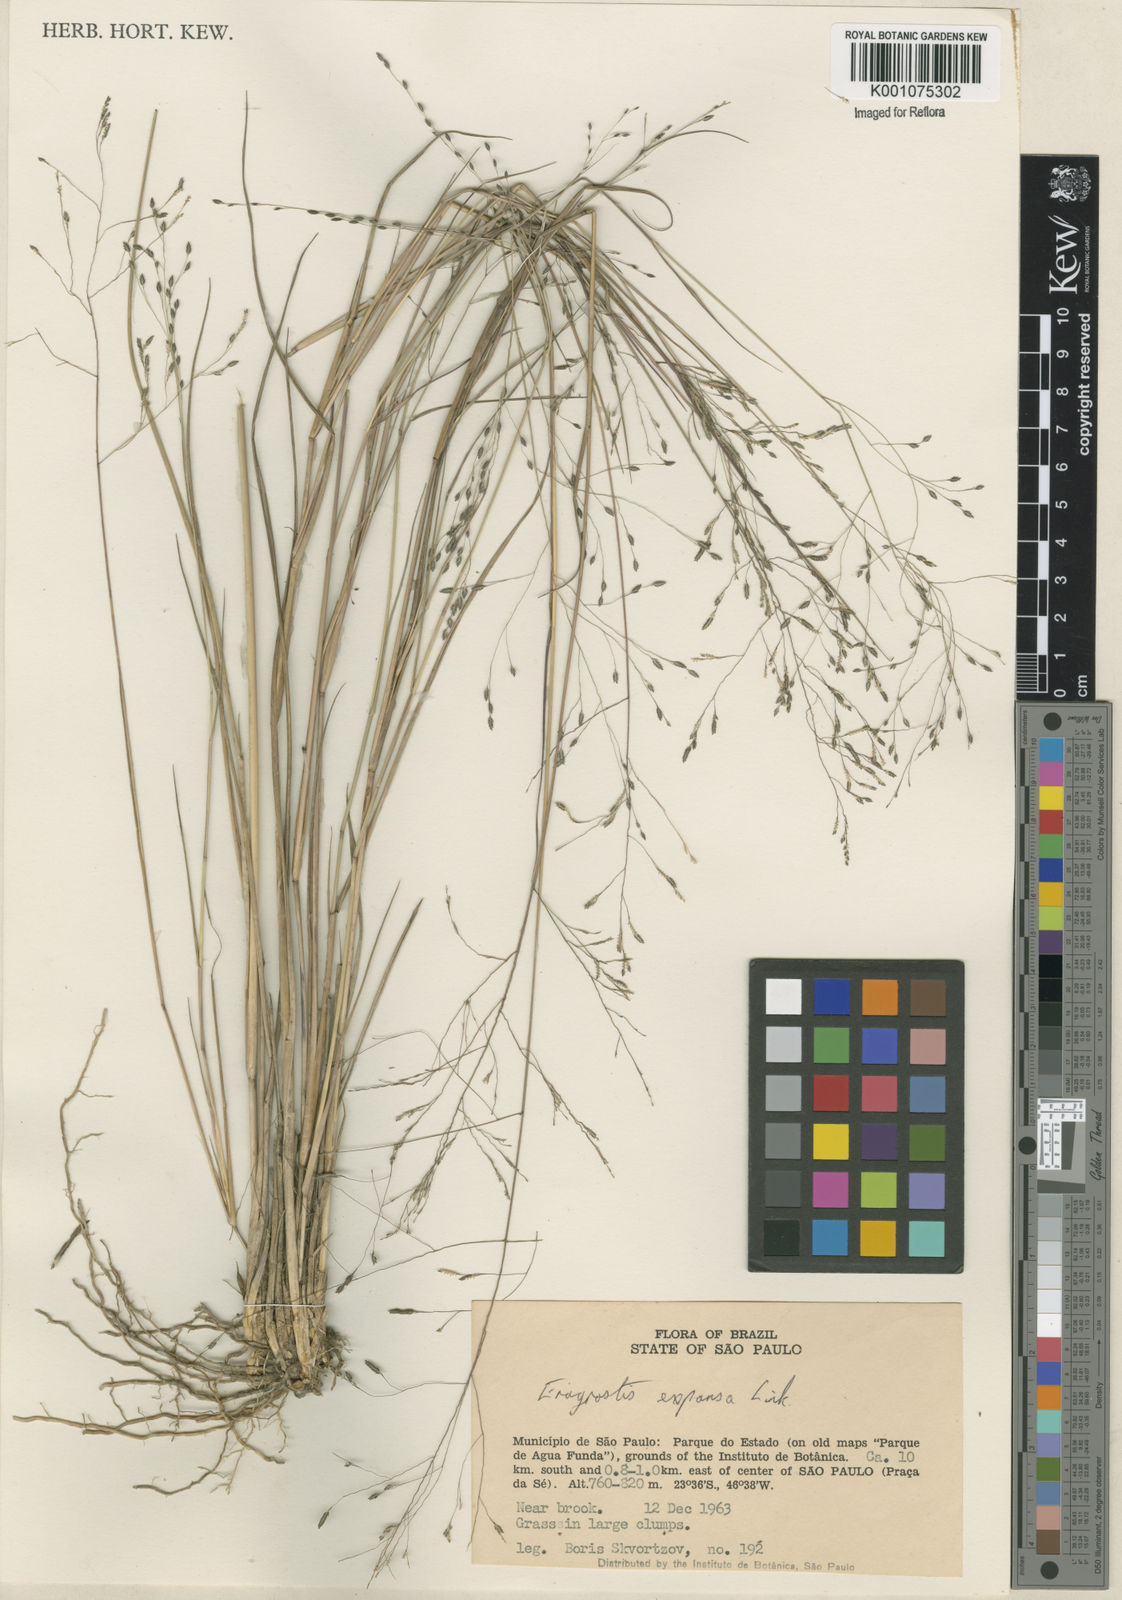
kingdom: Plantae
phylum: Tracheophyta
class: Liliopsida
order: Poales
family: Poaceae
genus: Eragrostis
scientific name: Eragrostis bahiensis
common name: Bahia lovegrass
